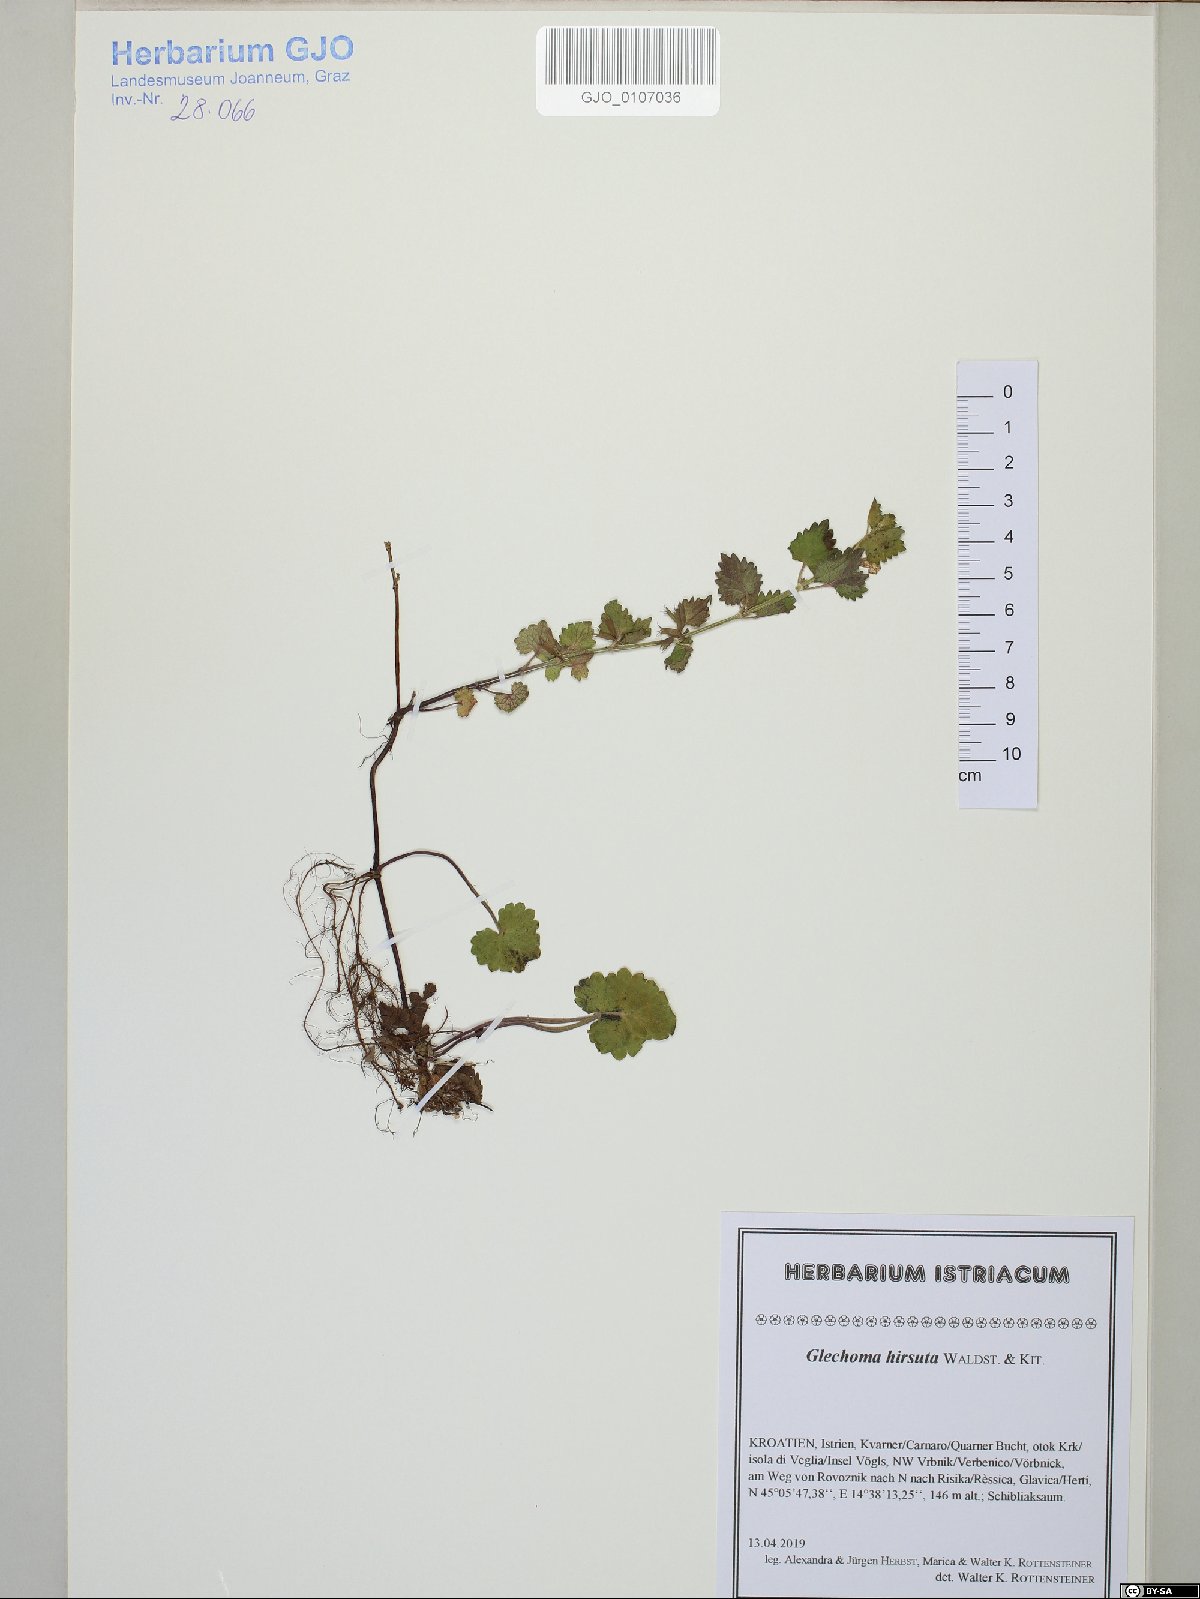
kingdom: Plantae
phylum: Tracheophyta
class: Magnoliopsida
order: Lamiales
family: Lamiaceae
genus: Glechoma
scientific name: Glechoma hirsuta
